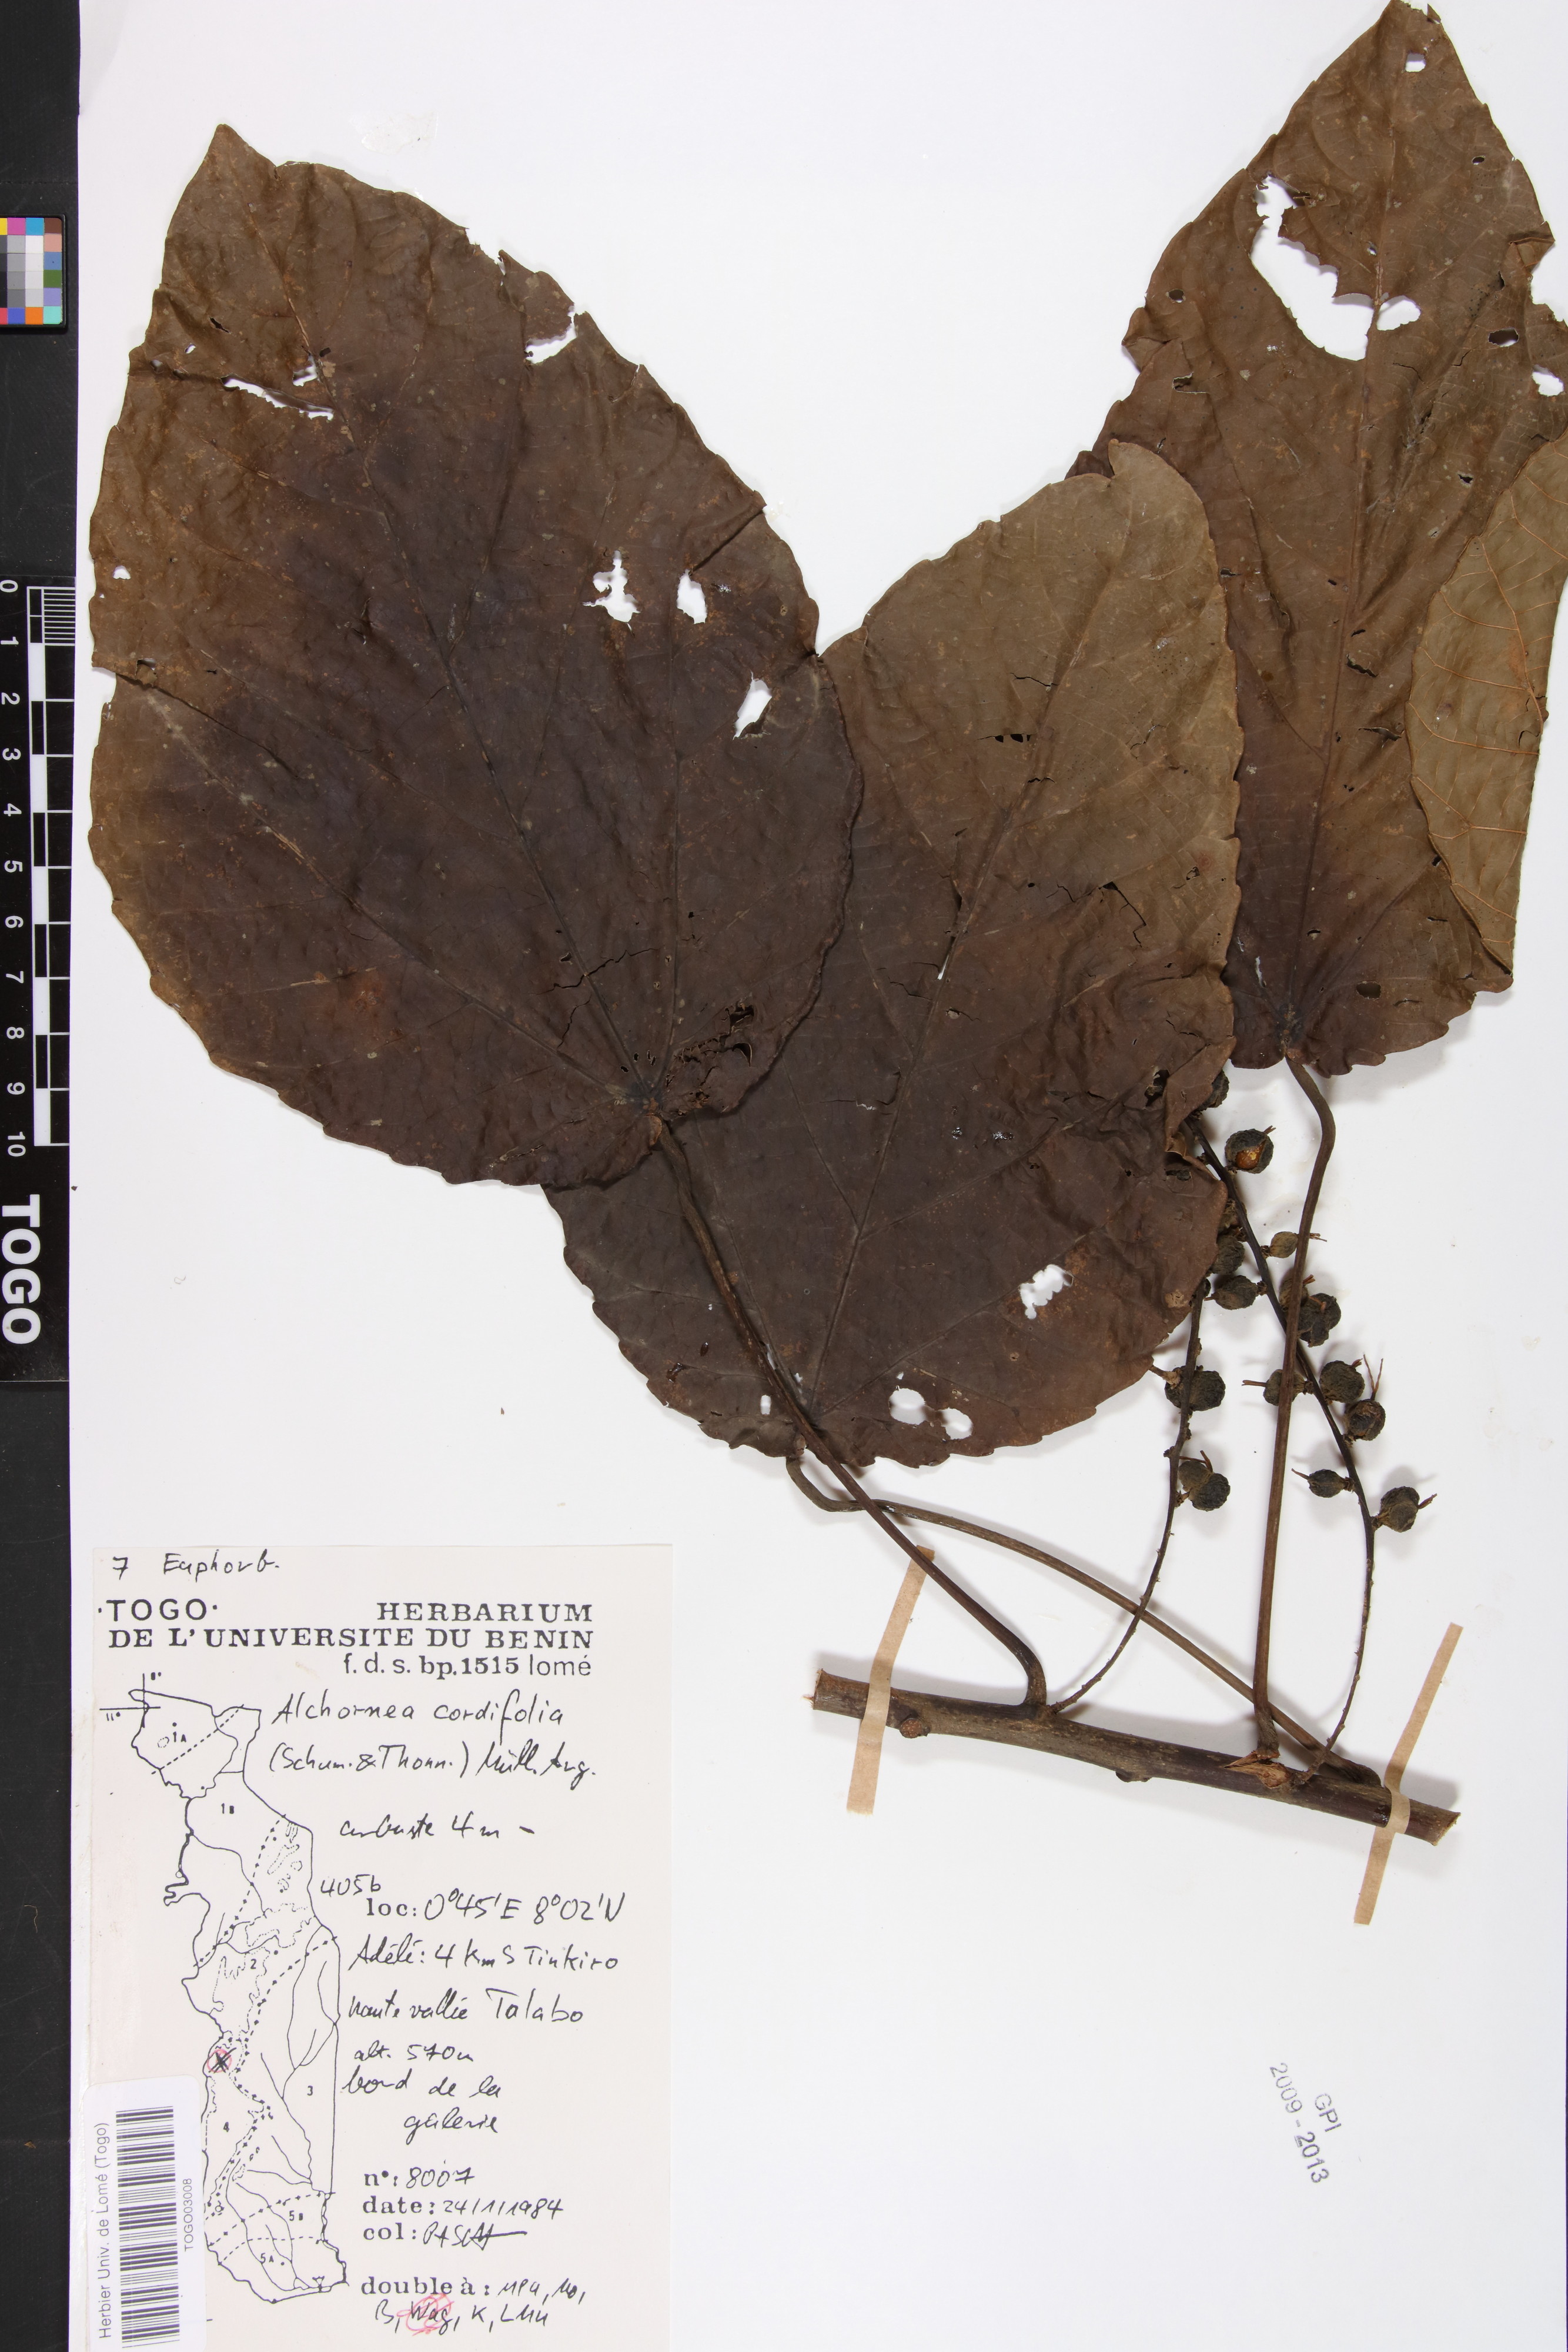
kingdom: Plantae
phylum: Tracheophyta
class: Magnoliopsida
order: Malpighiales
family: Euphorbiaceae
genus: Alchornea
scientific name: Alchornea cordifolia
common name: Christmasbush
